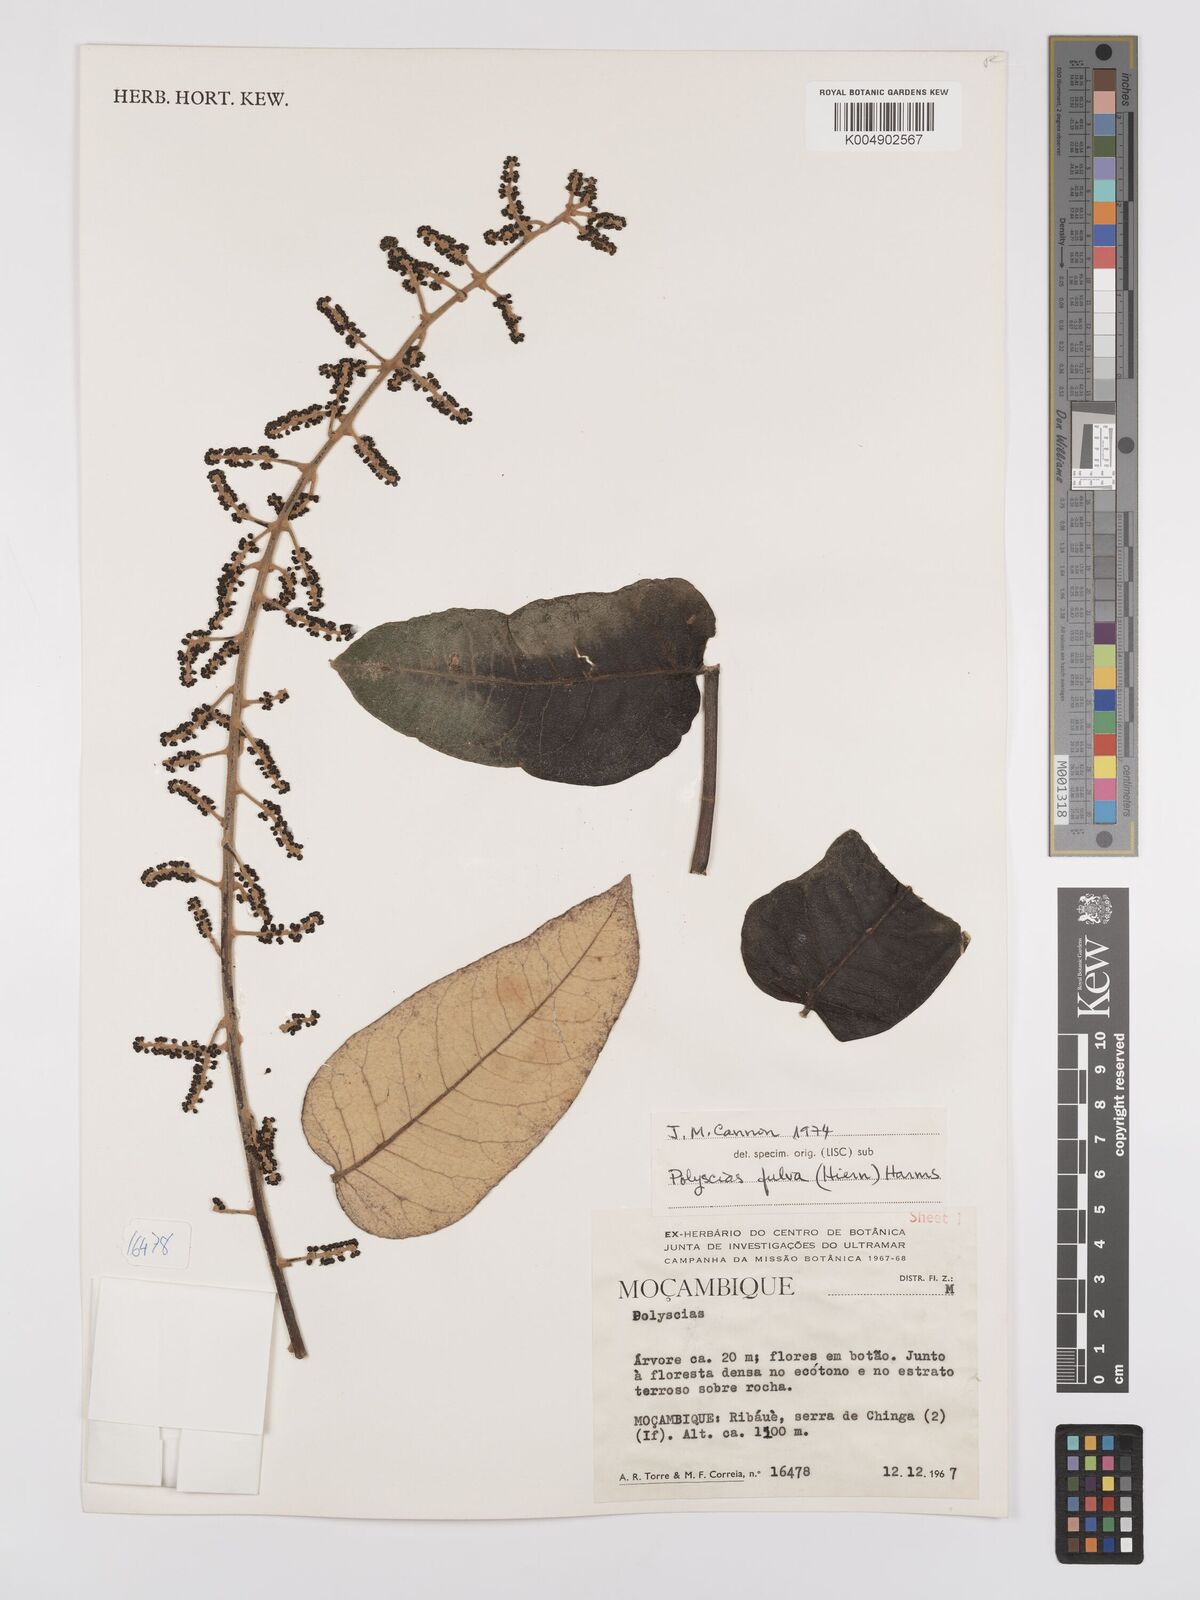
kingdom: Plantae
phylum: Tracheophyta
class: Magnoliopsida
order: Apiales
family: Araliaceae
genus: Polyscias
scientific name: Polyscias fulva
